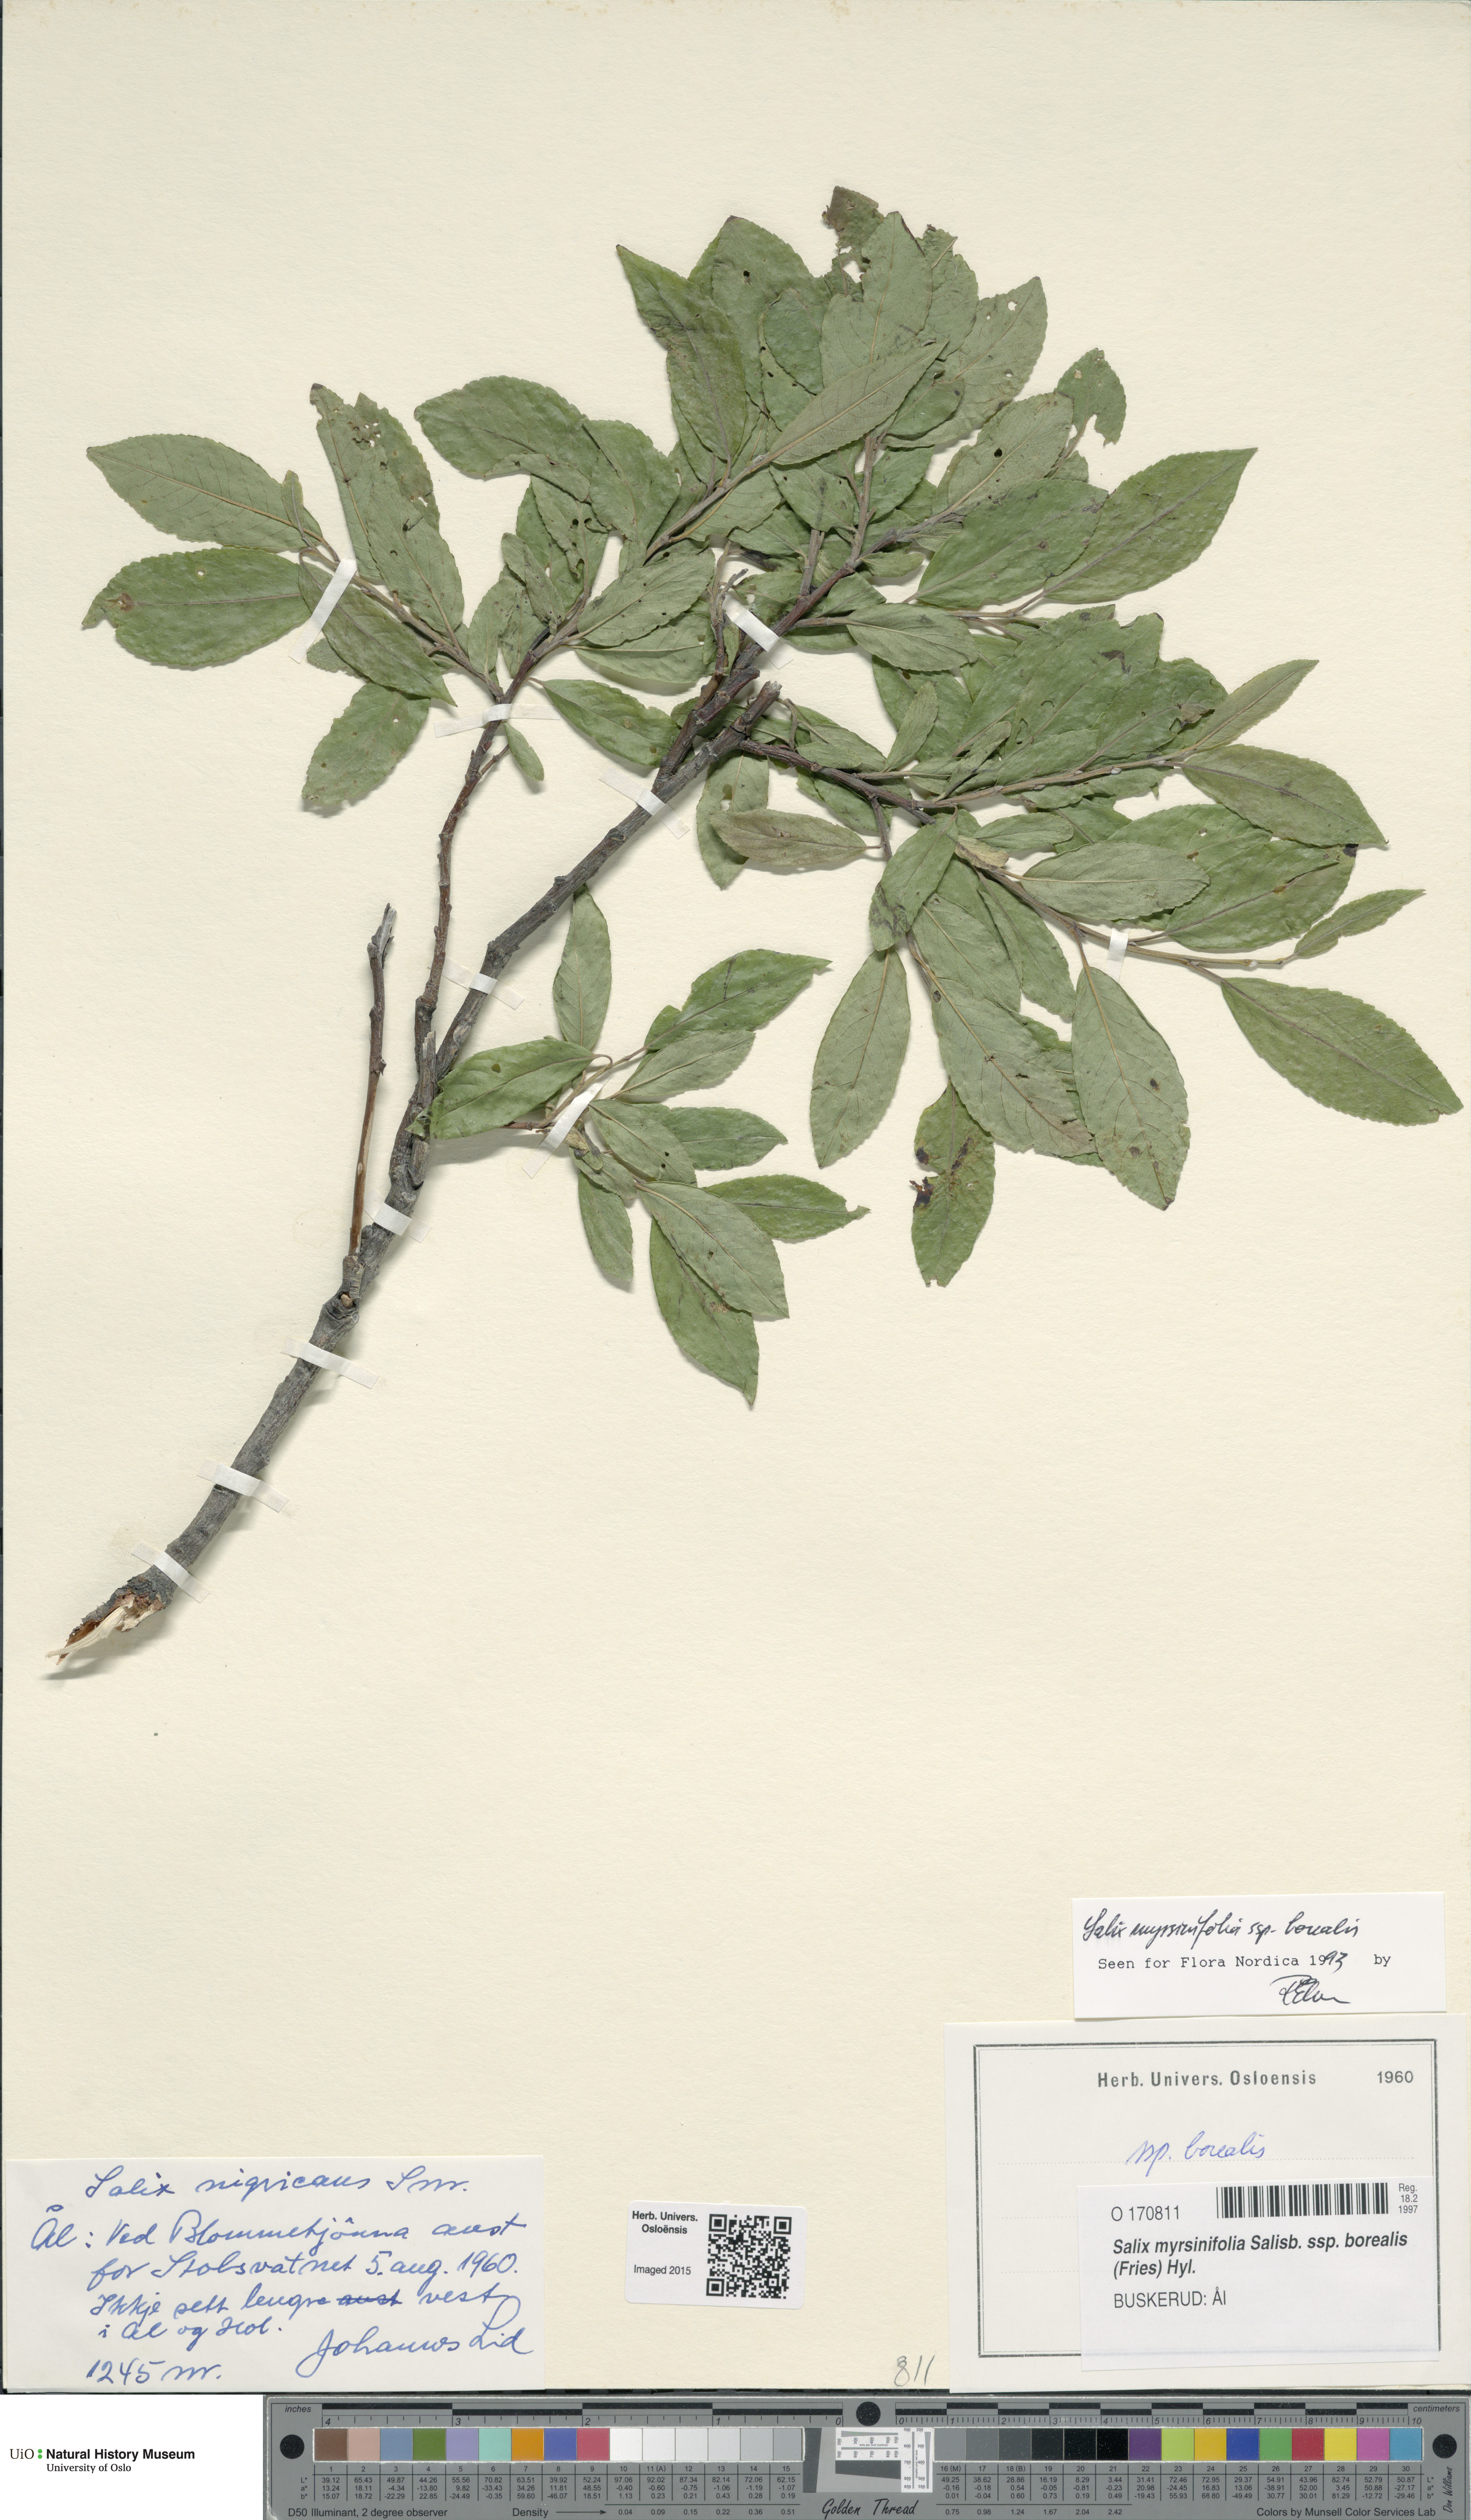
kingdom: Plantae
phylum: Tracheophyta
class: Magnoliopsida
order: Malpighiales
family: Salicaceae
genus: Salix
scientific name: Salix myrsinifolia
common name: Dark-leaved willow
